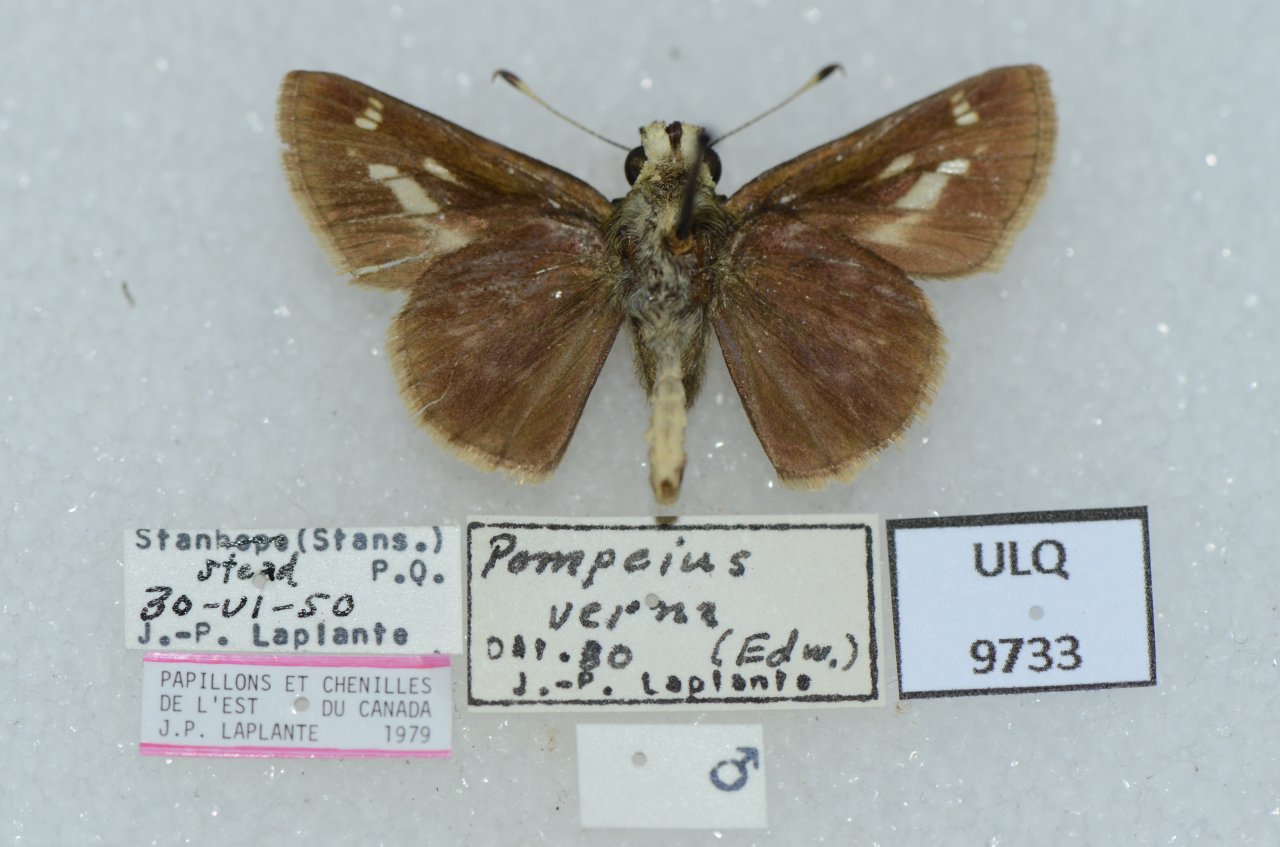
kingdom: Animalia
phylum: Arthropoda
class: Insecta
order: Lepidoptera
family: Hesperiidae
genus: Vernia
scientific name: Vernia verna
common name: Little Glassywing
